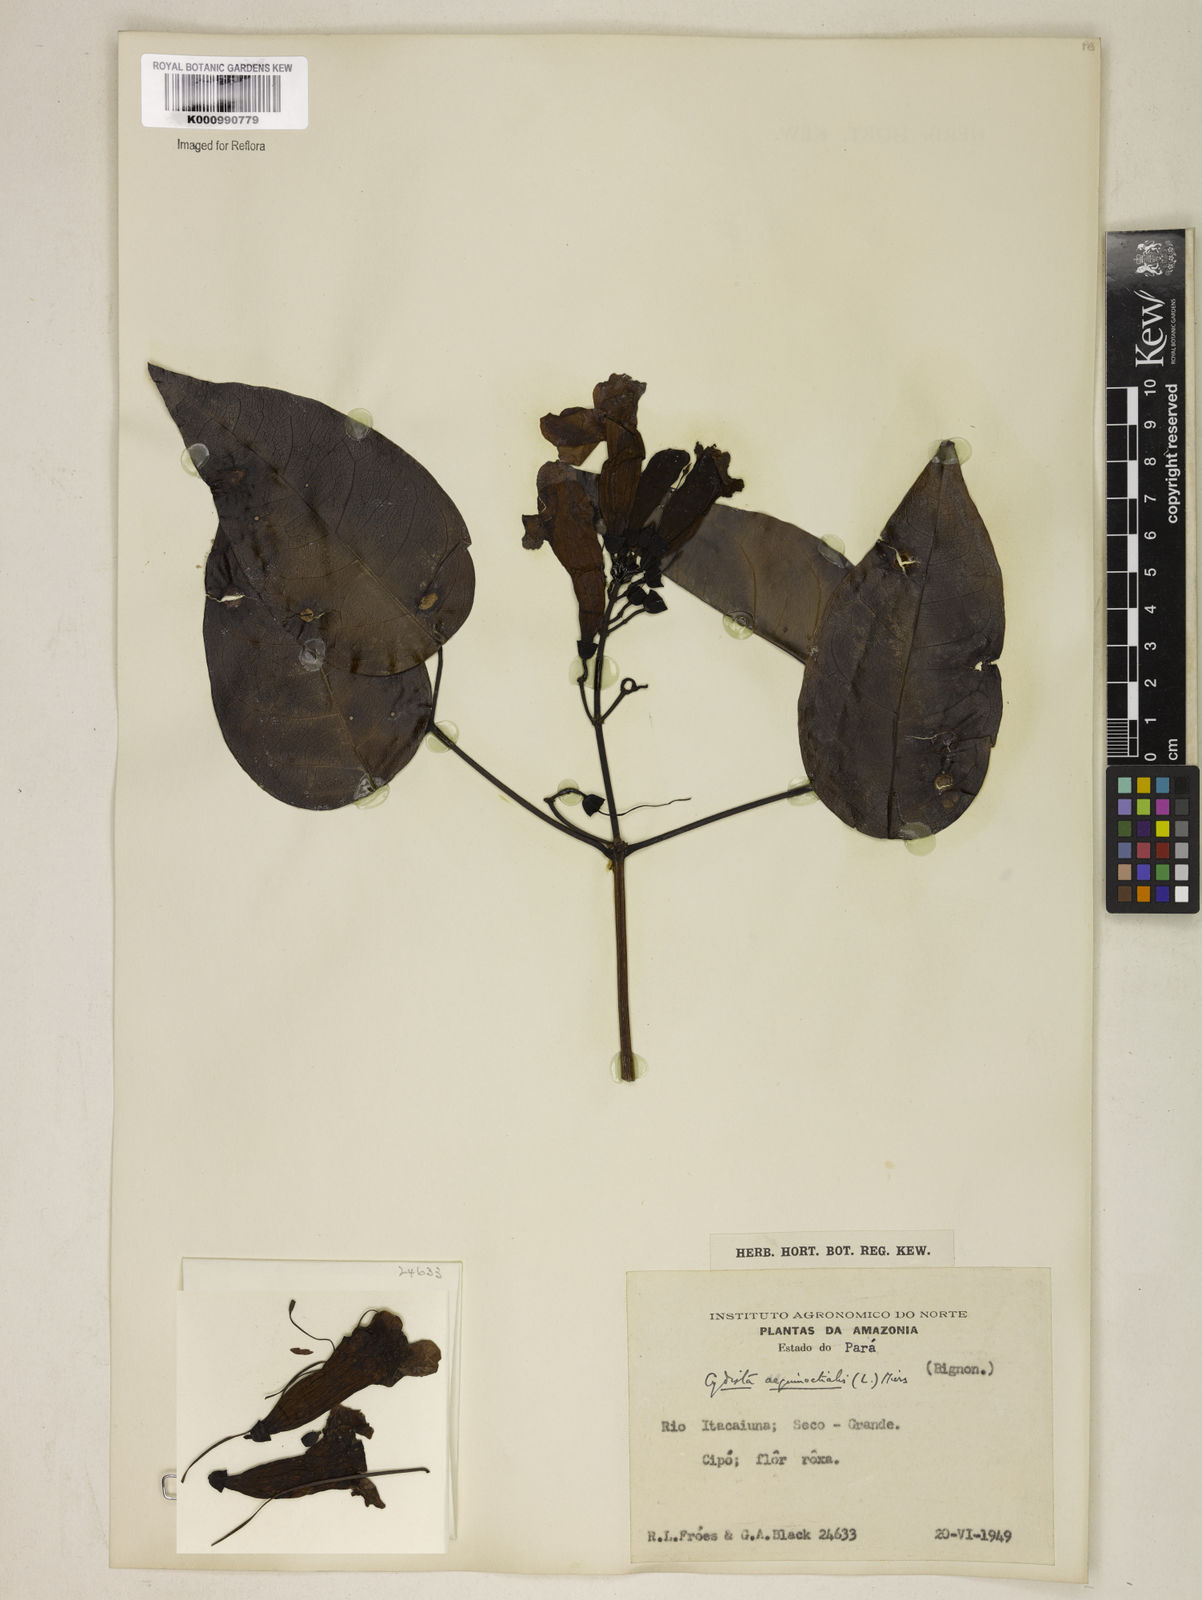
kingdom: Plantae
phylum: Tracheophyta
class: Magnoliopsida
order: Lamiales
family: Bignoniaceae
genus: Bignonia
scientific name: Bignonia aequinoctialis
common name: Garlicvine
